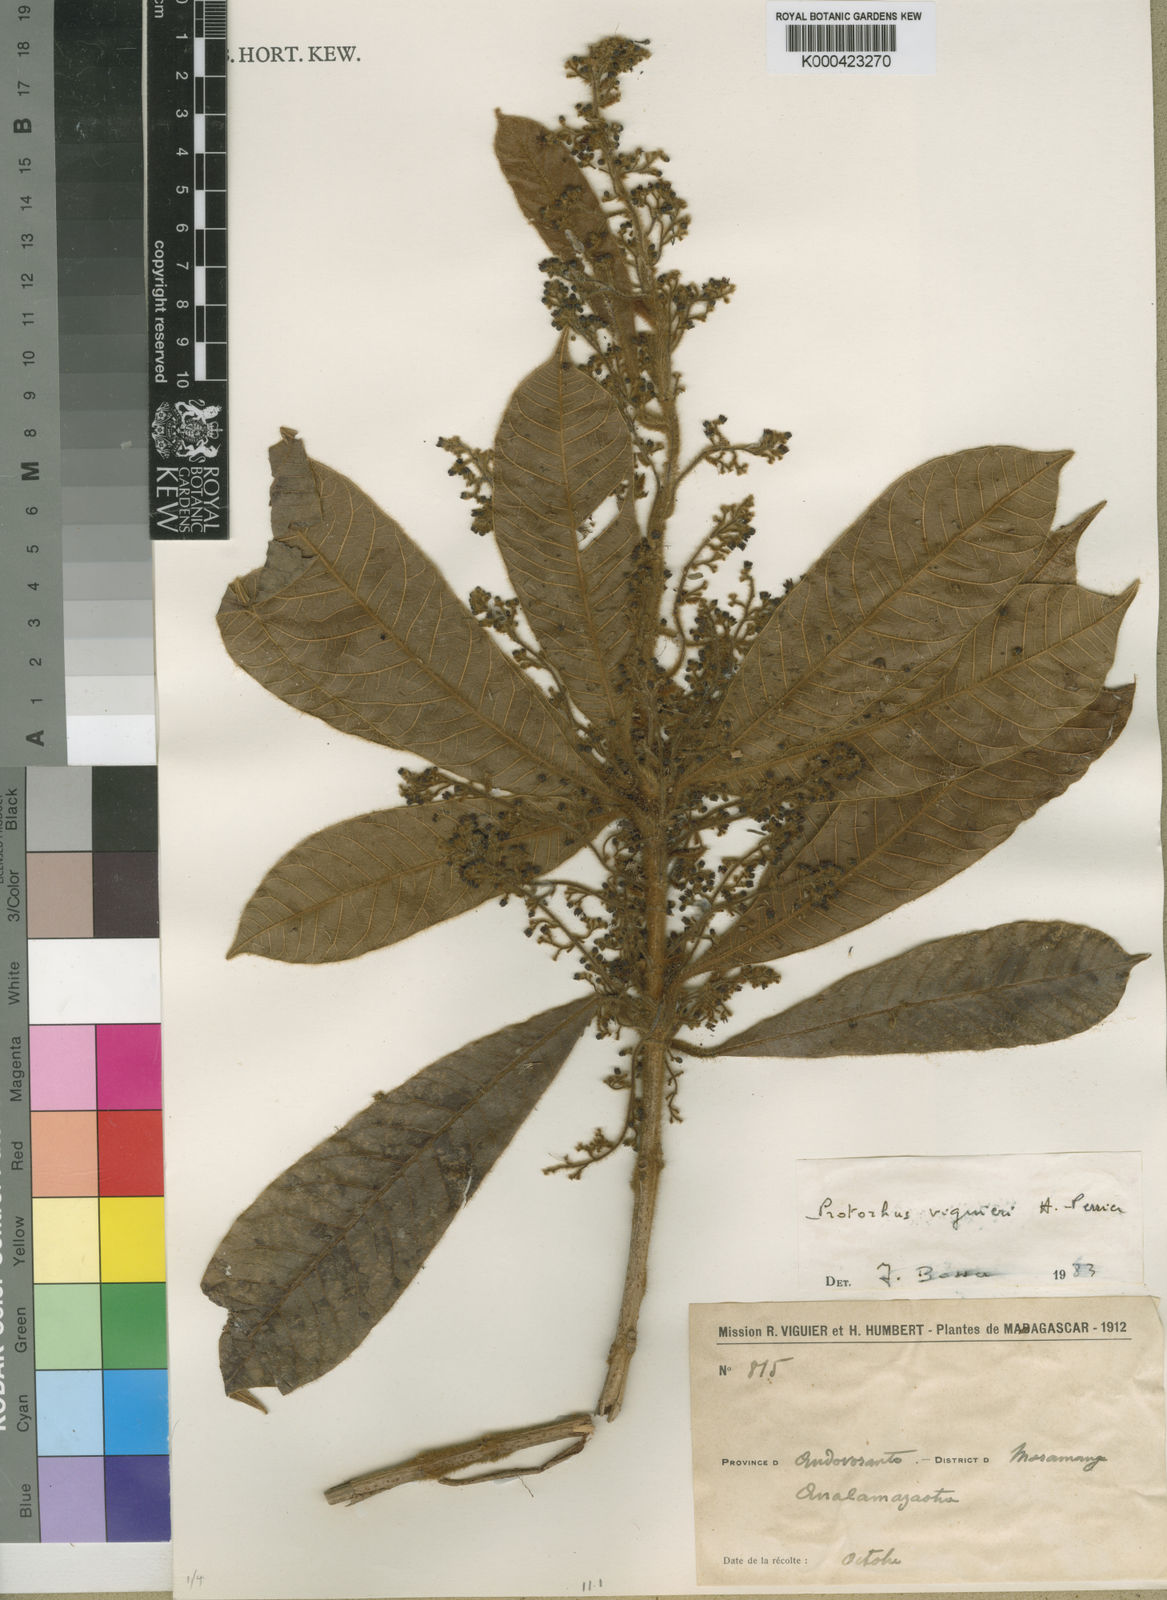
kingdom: Plantae
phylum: Tracheophyta
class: Magnoliopsida
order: Sapindales
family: Anacardiaceae
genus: Abrahamia
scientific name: Abrahamia viguieri
